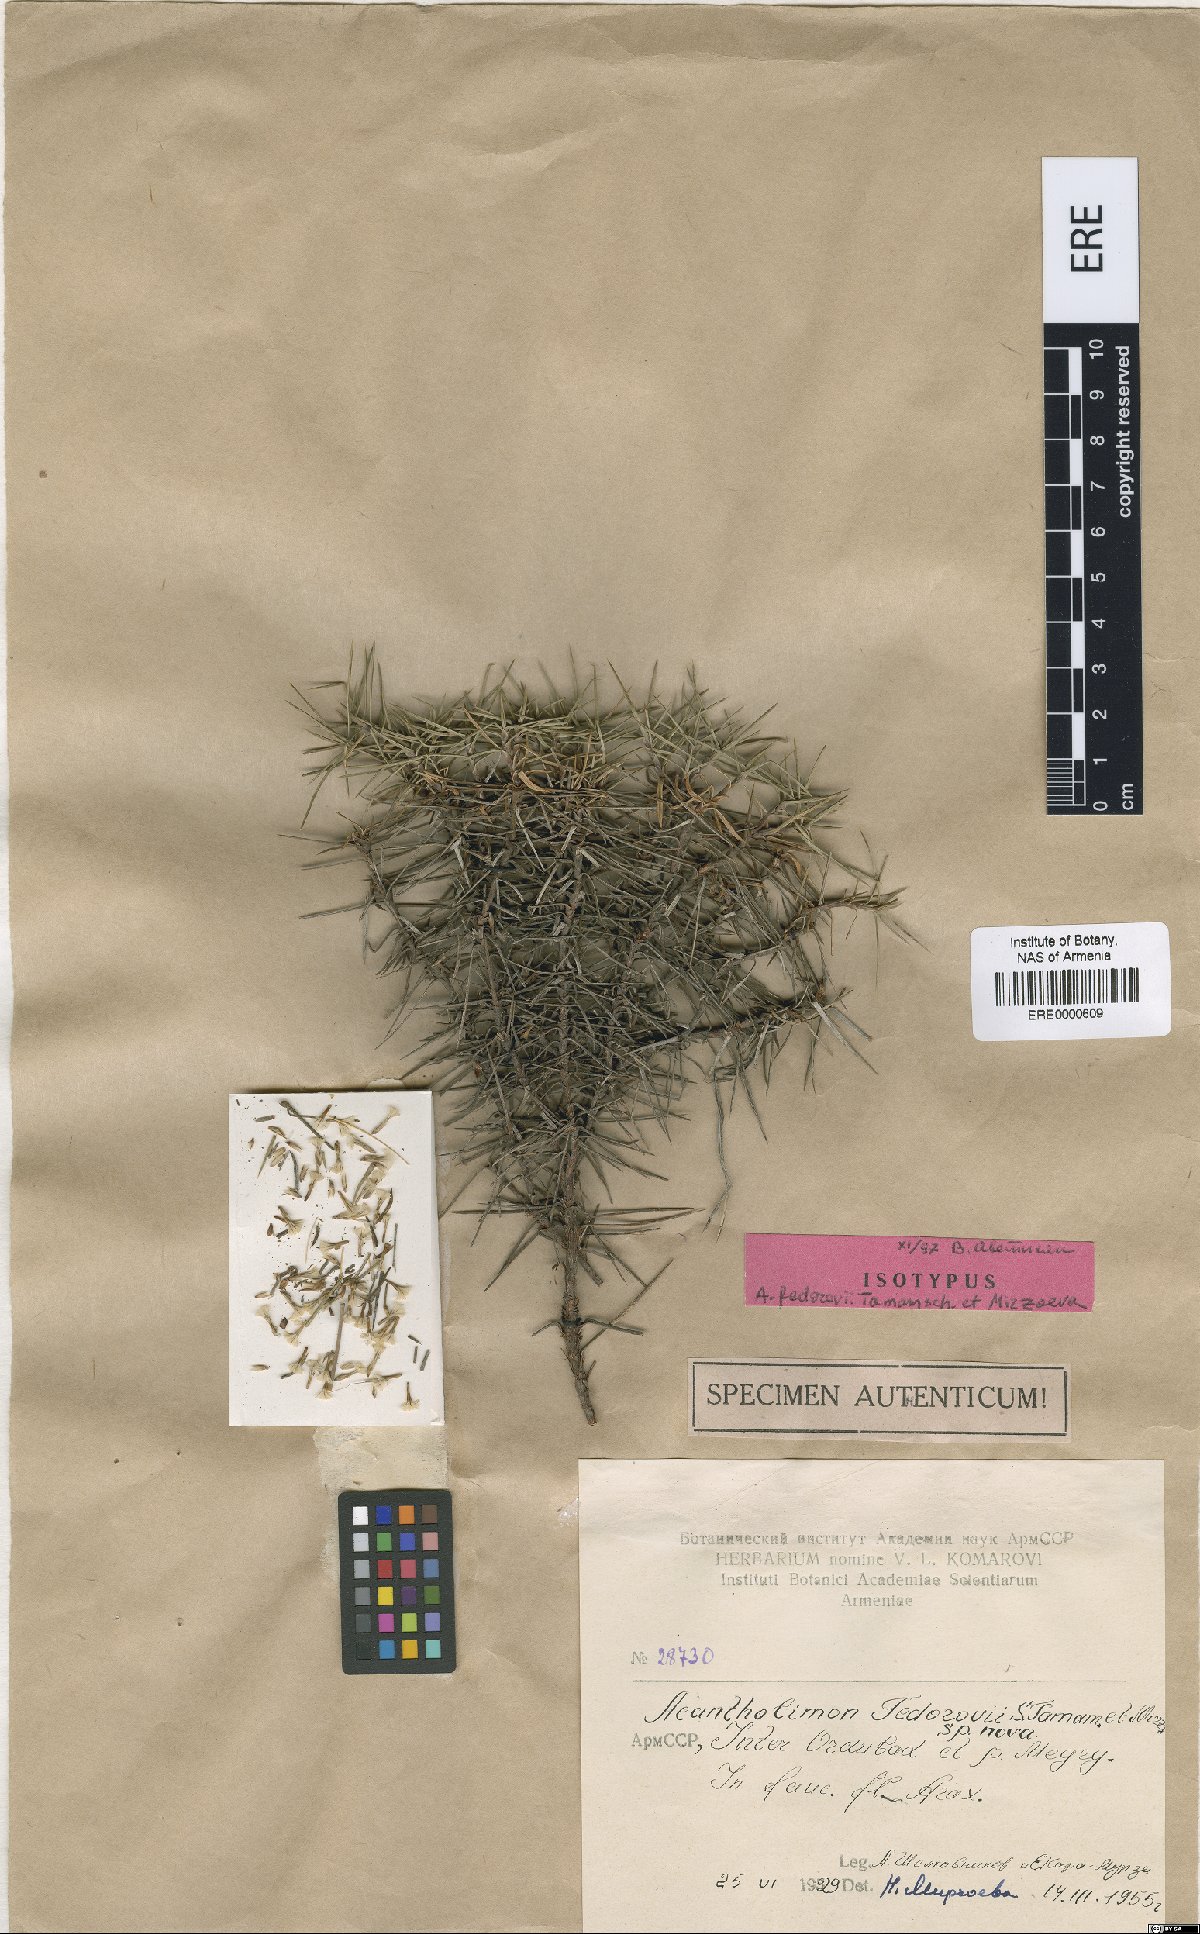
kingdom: Plantae
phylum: Tracheophyta
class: Magnoliopsida
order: Caryophyllales
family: Plumbaginaceae
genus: Acantholimon
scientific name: Acantholimon fedorovii
